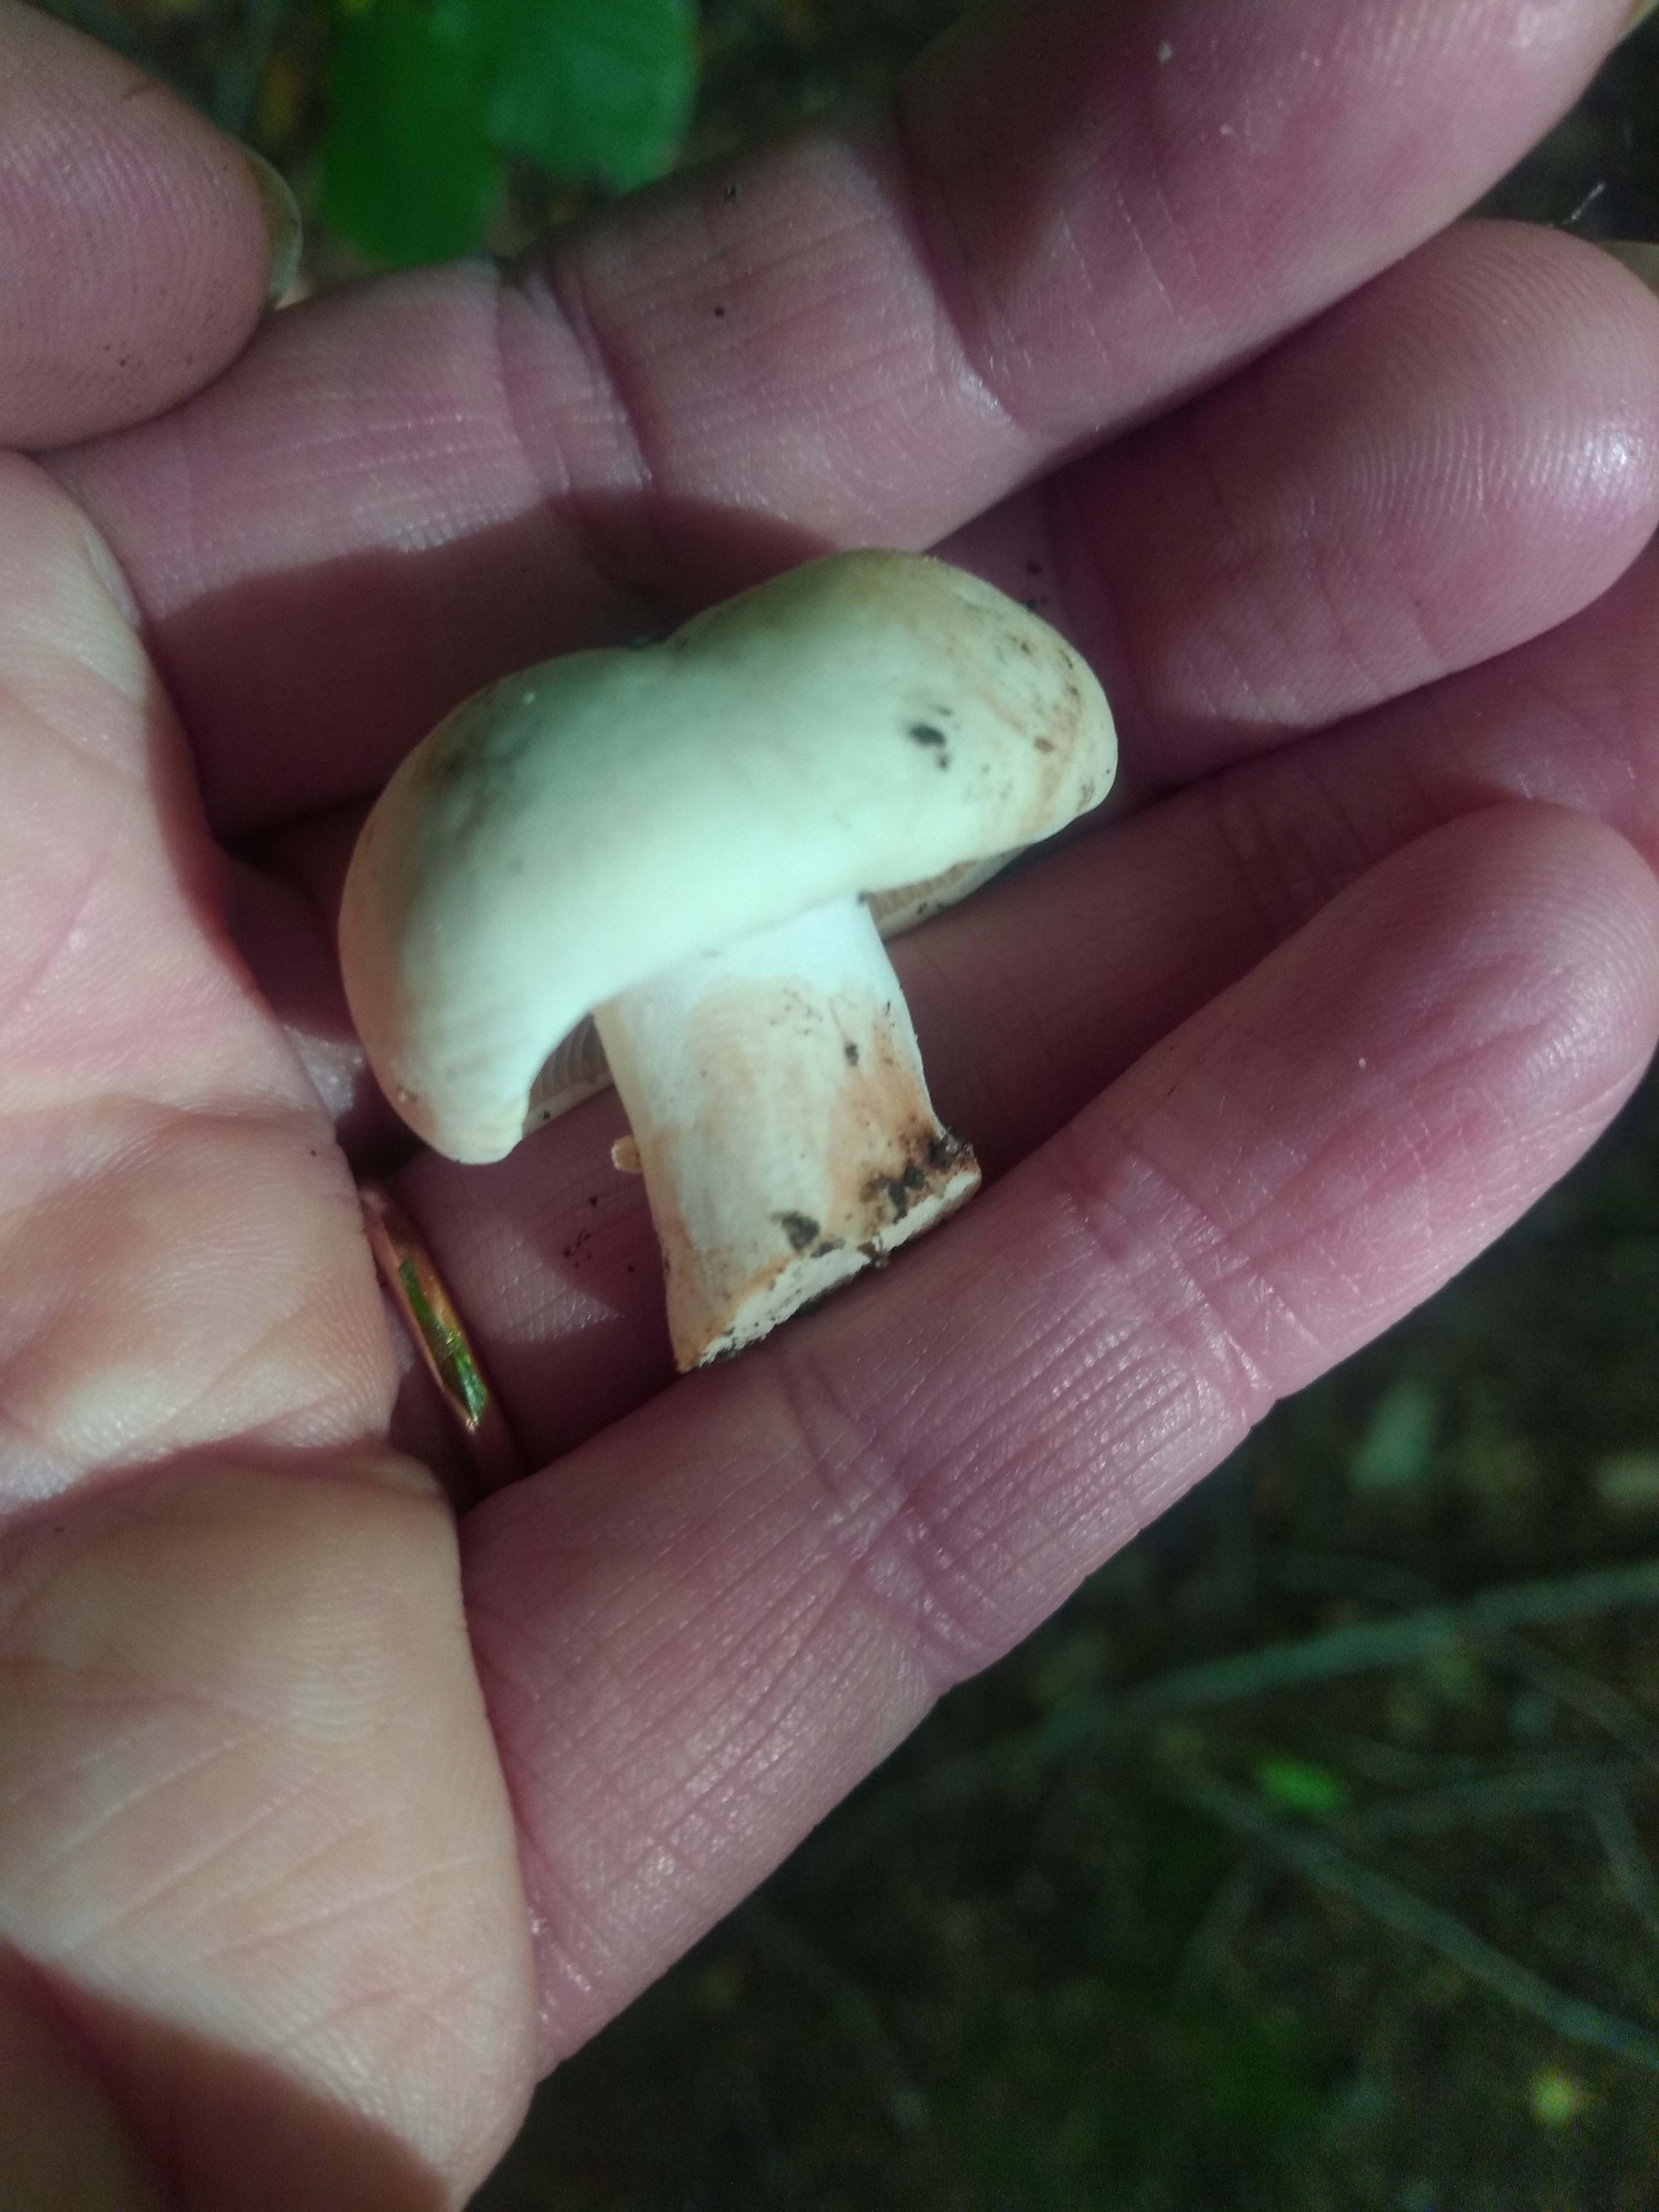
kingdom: Fungi
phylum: Basidiomycota
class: Agaricomycetes
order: Russulales
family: Russulaceae
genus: Russula
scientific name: Russula adusta
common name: sværtende skørhat
